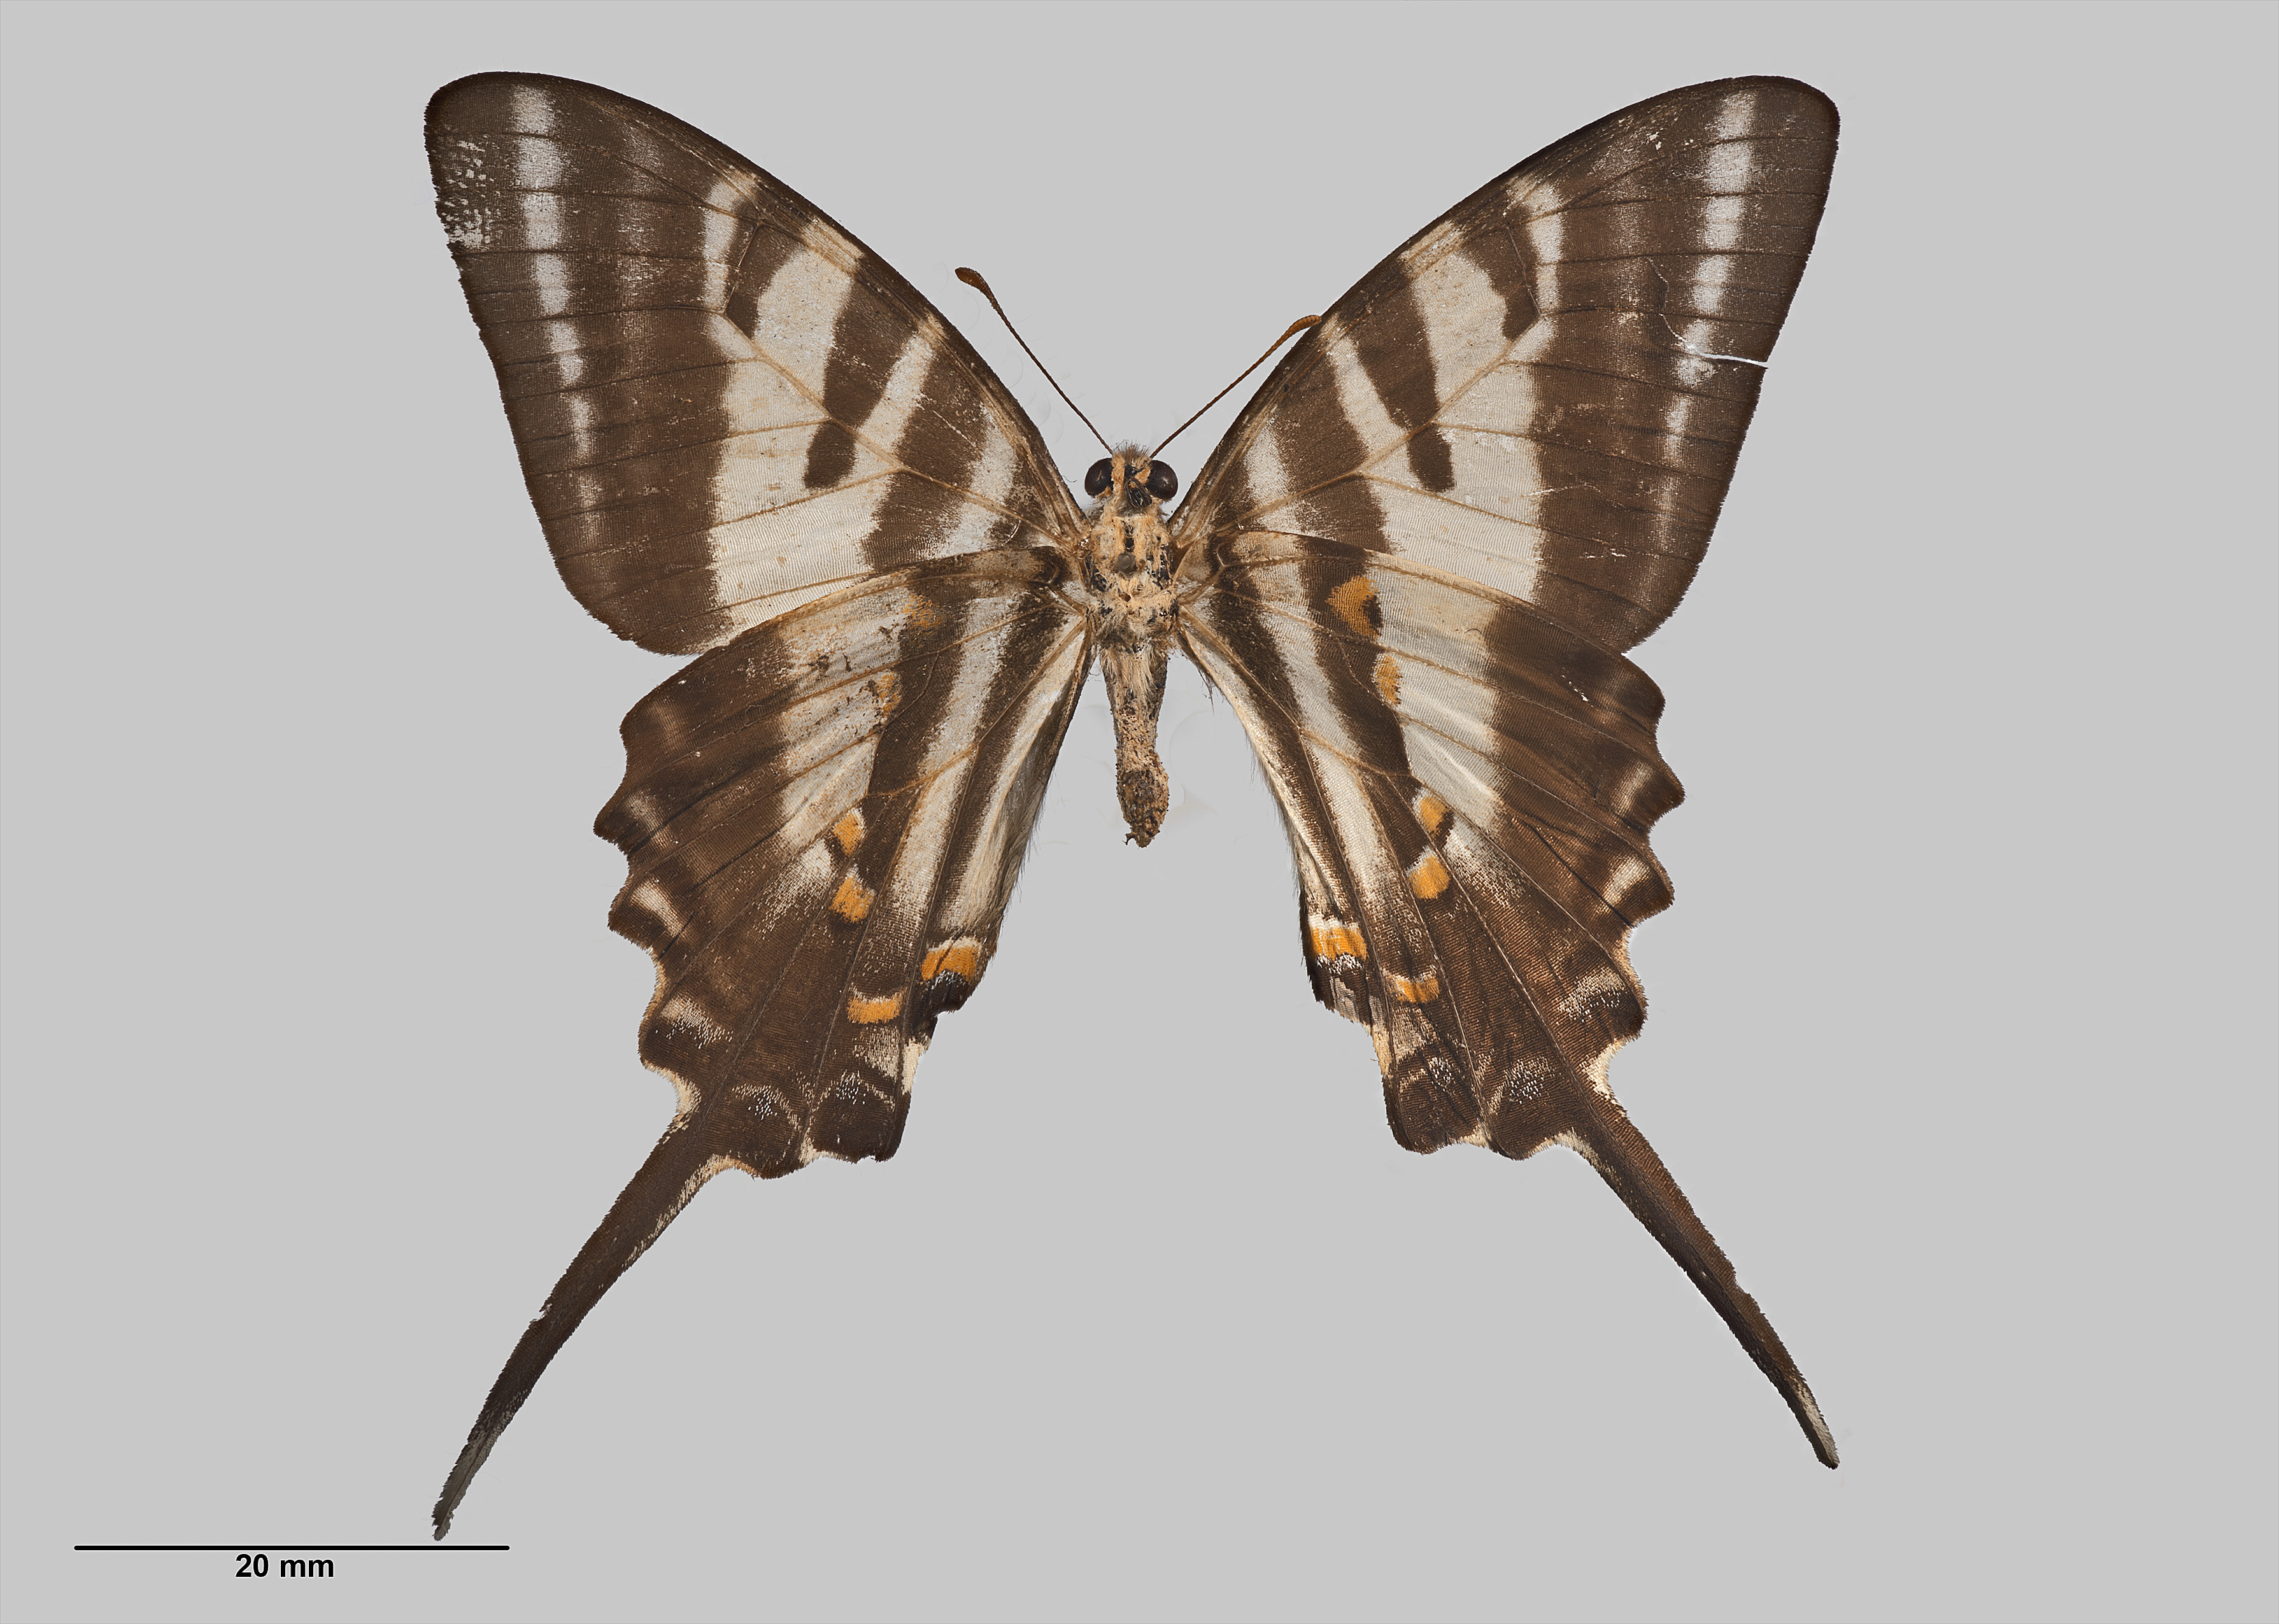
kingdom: Animalia
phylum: Arthropoda
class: Insecta
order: Lepidoptera
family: Papilionidae
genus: Protographium
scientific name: Protographium leosthenes
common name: Four-bar swordtail
